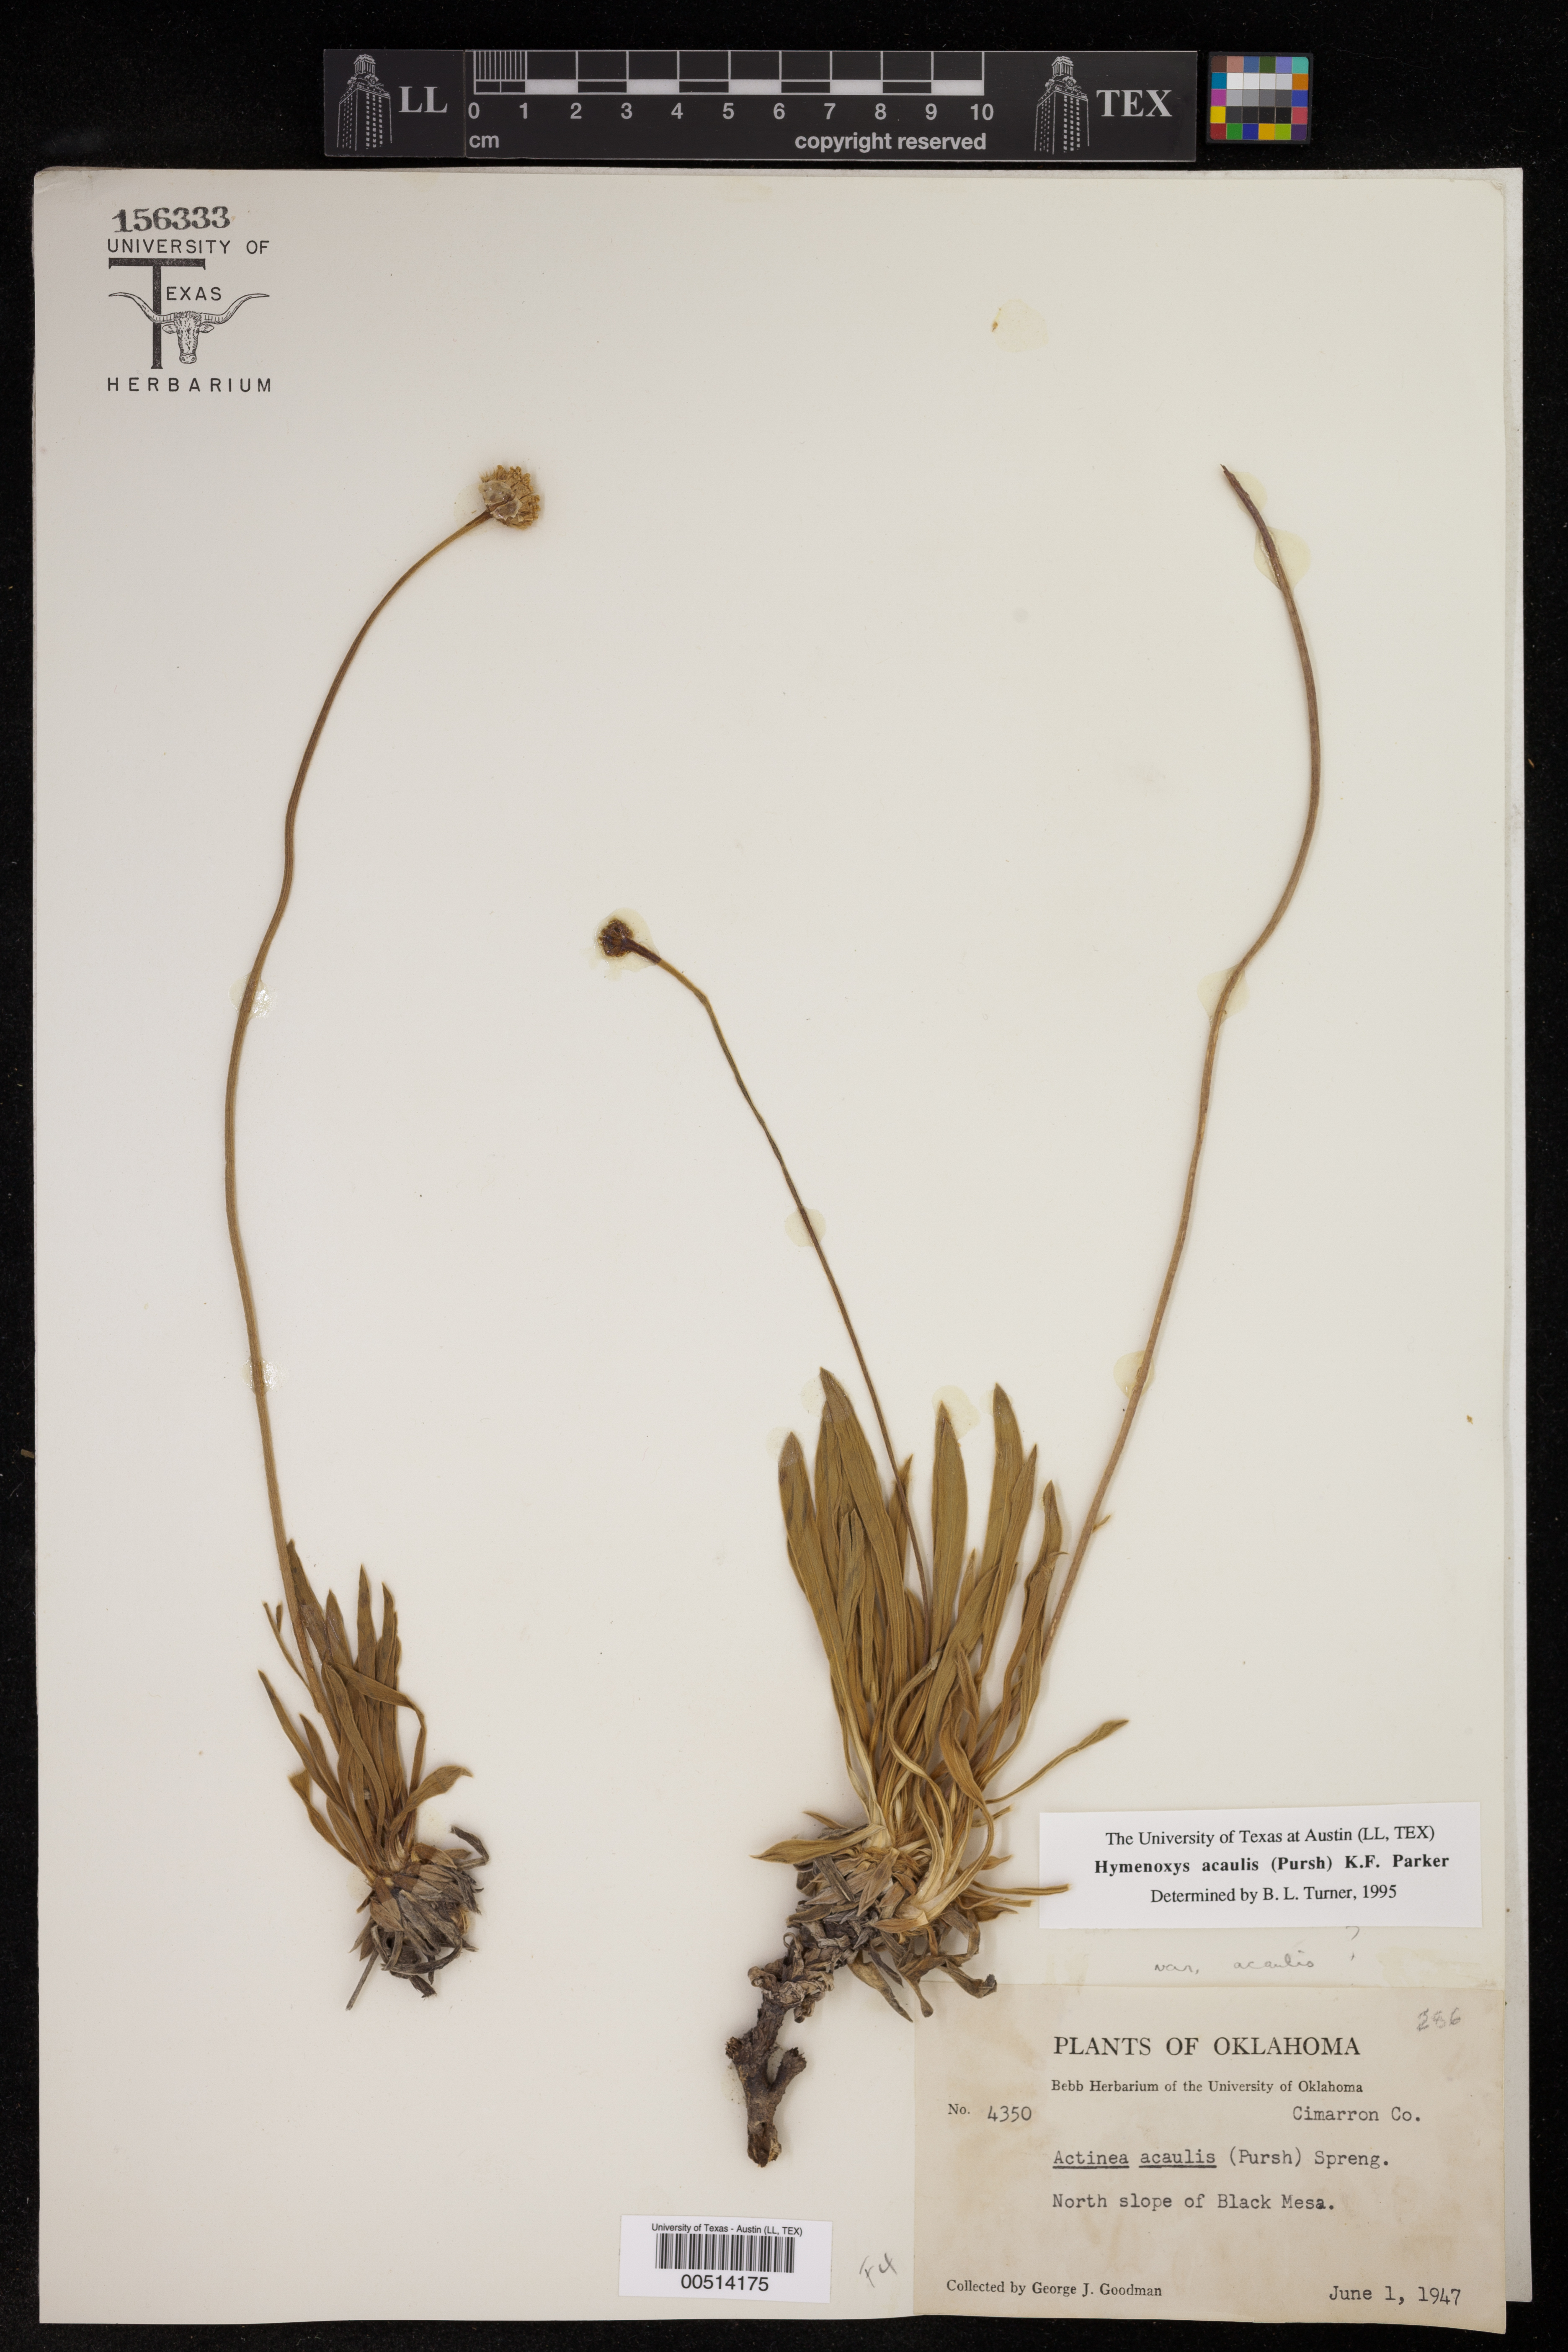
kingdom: Plantae
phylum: Tracheophyta
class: Magnoliopsida
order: Asterales
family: Asteraceae
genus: Tetraneuris
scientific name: Tetraneuris acaulis
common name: Butte marigold
